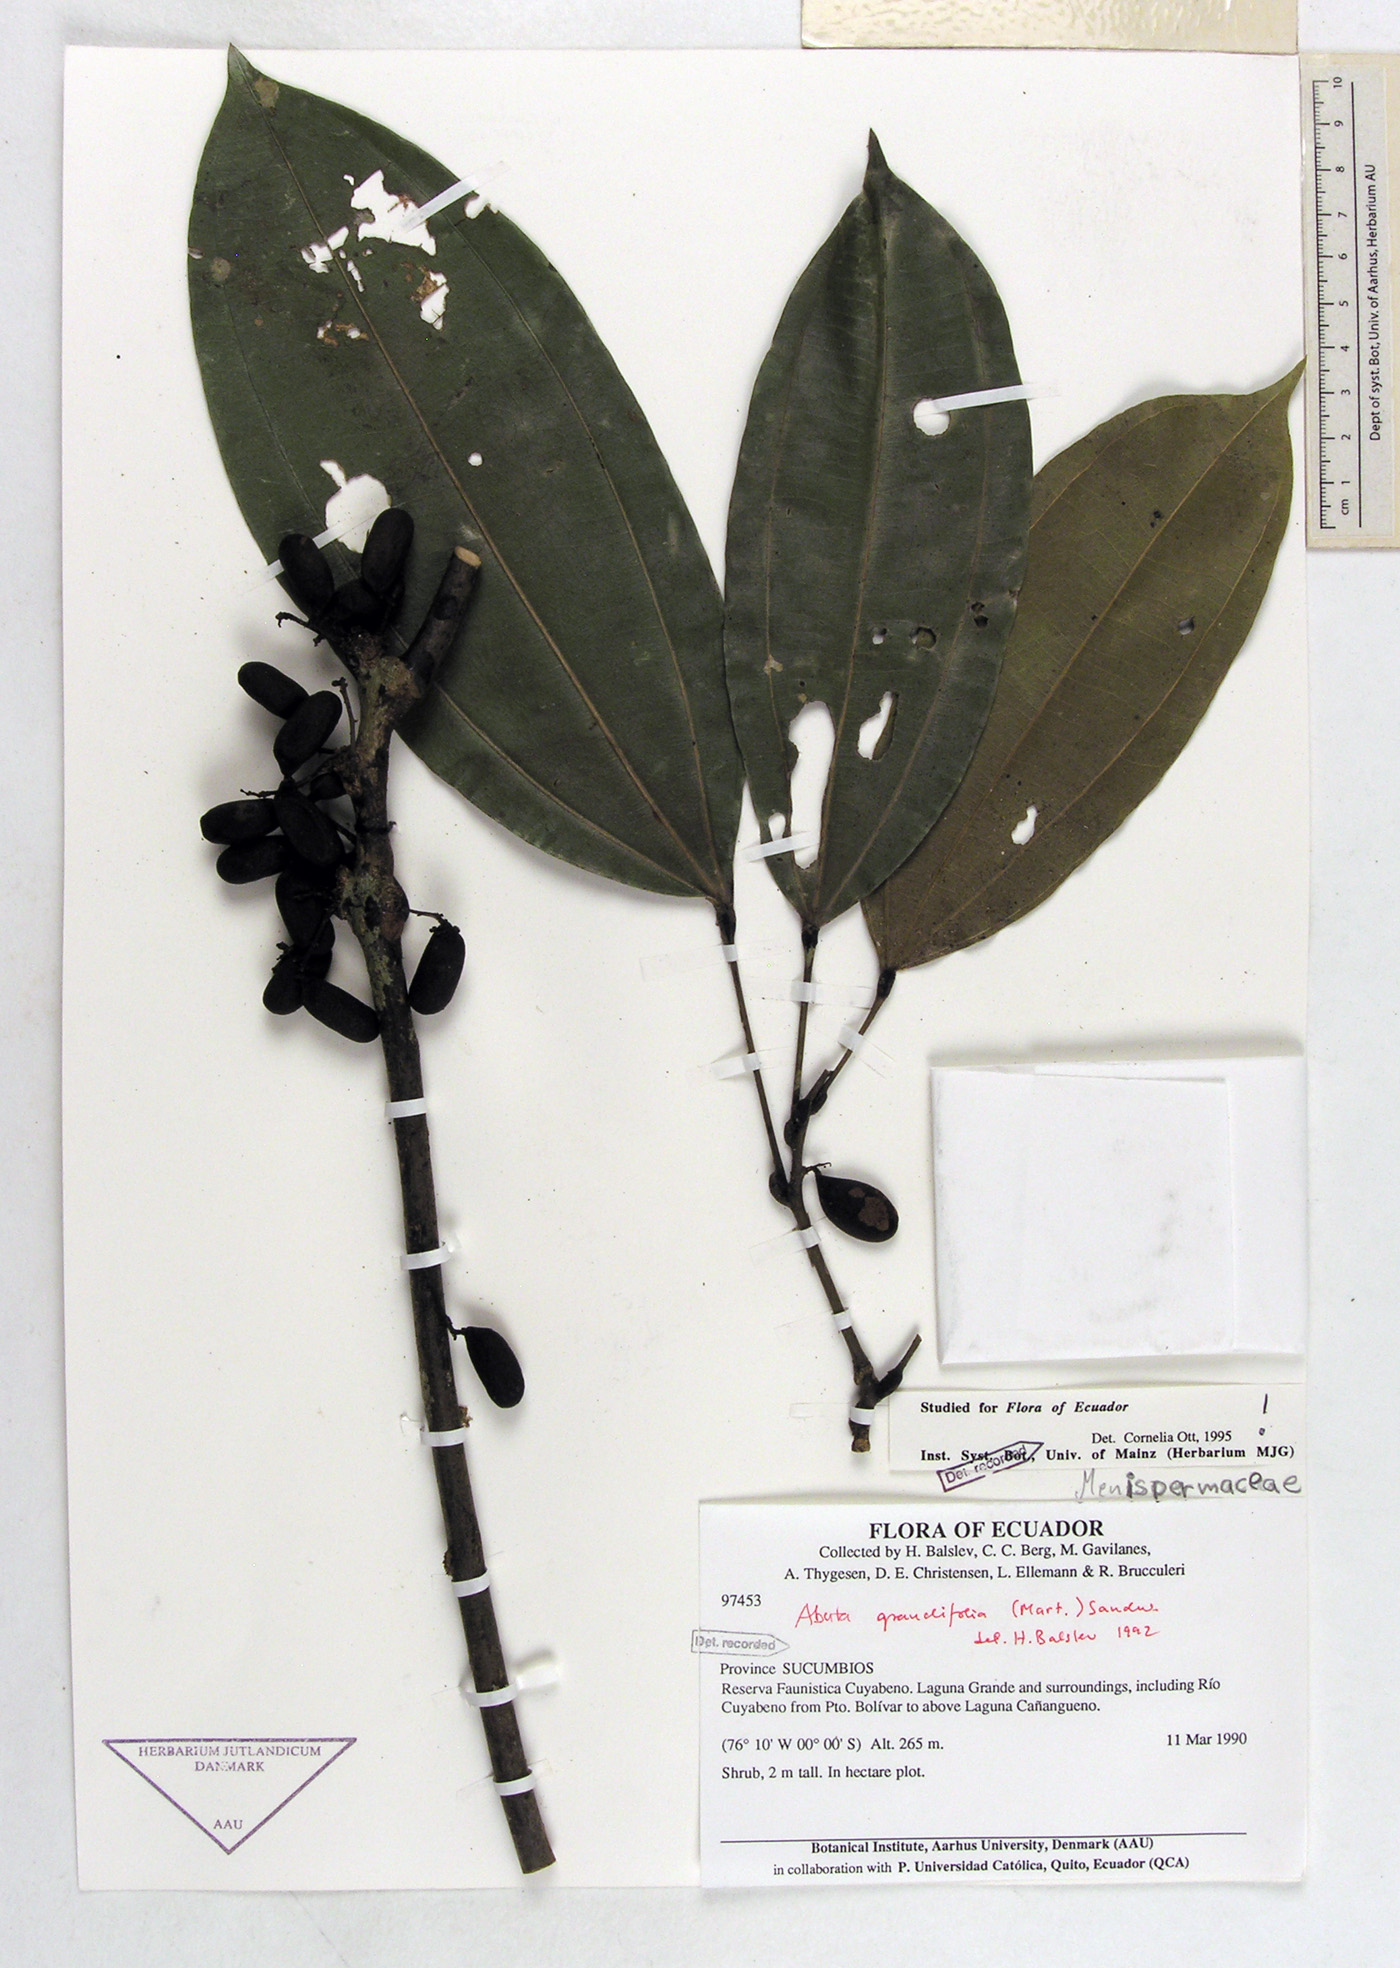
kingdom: Plantae
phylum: Tracheophyta
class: Magnoliopsida
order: Ranunculales
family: Menispermaceae
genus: Abuta
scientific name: Abuta grandifolia
